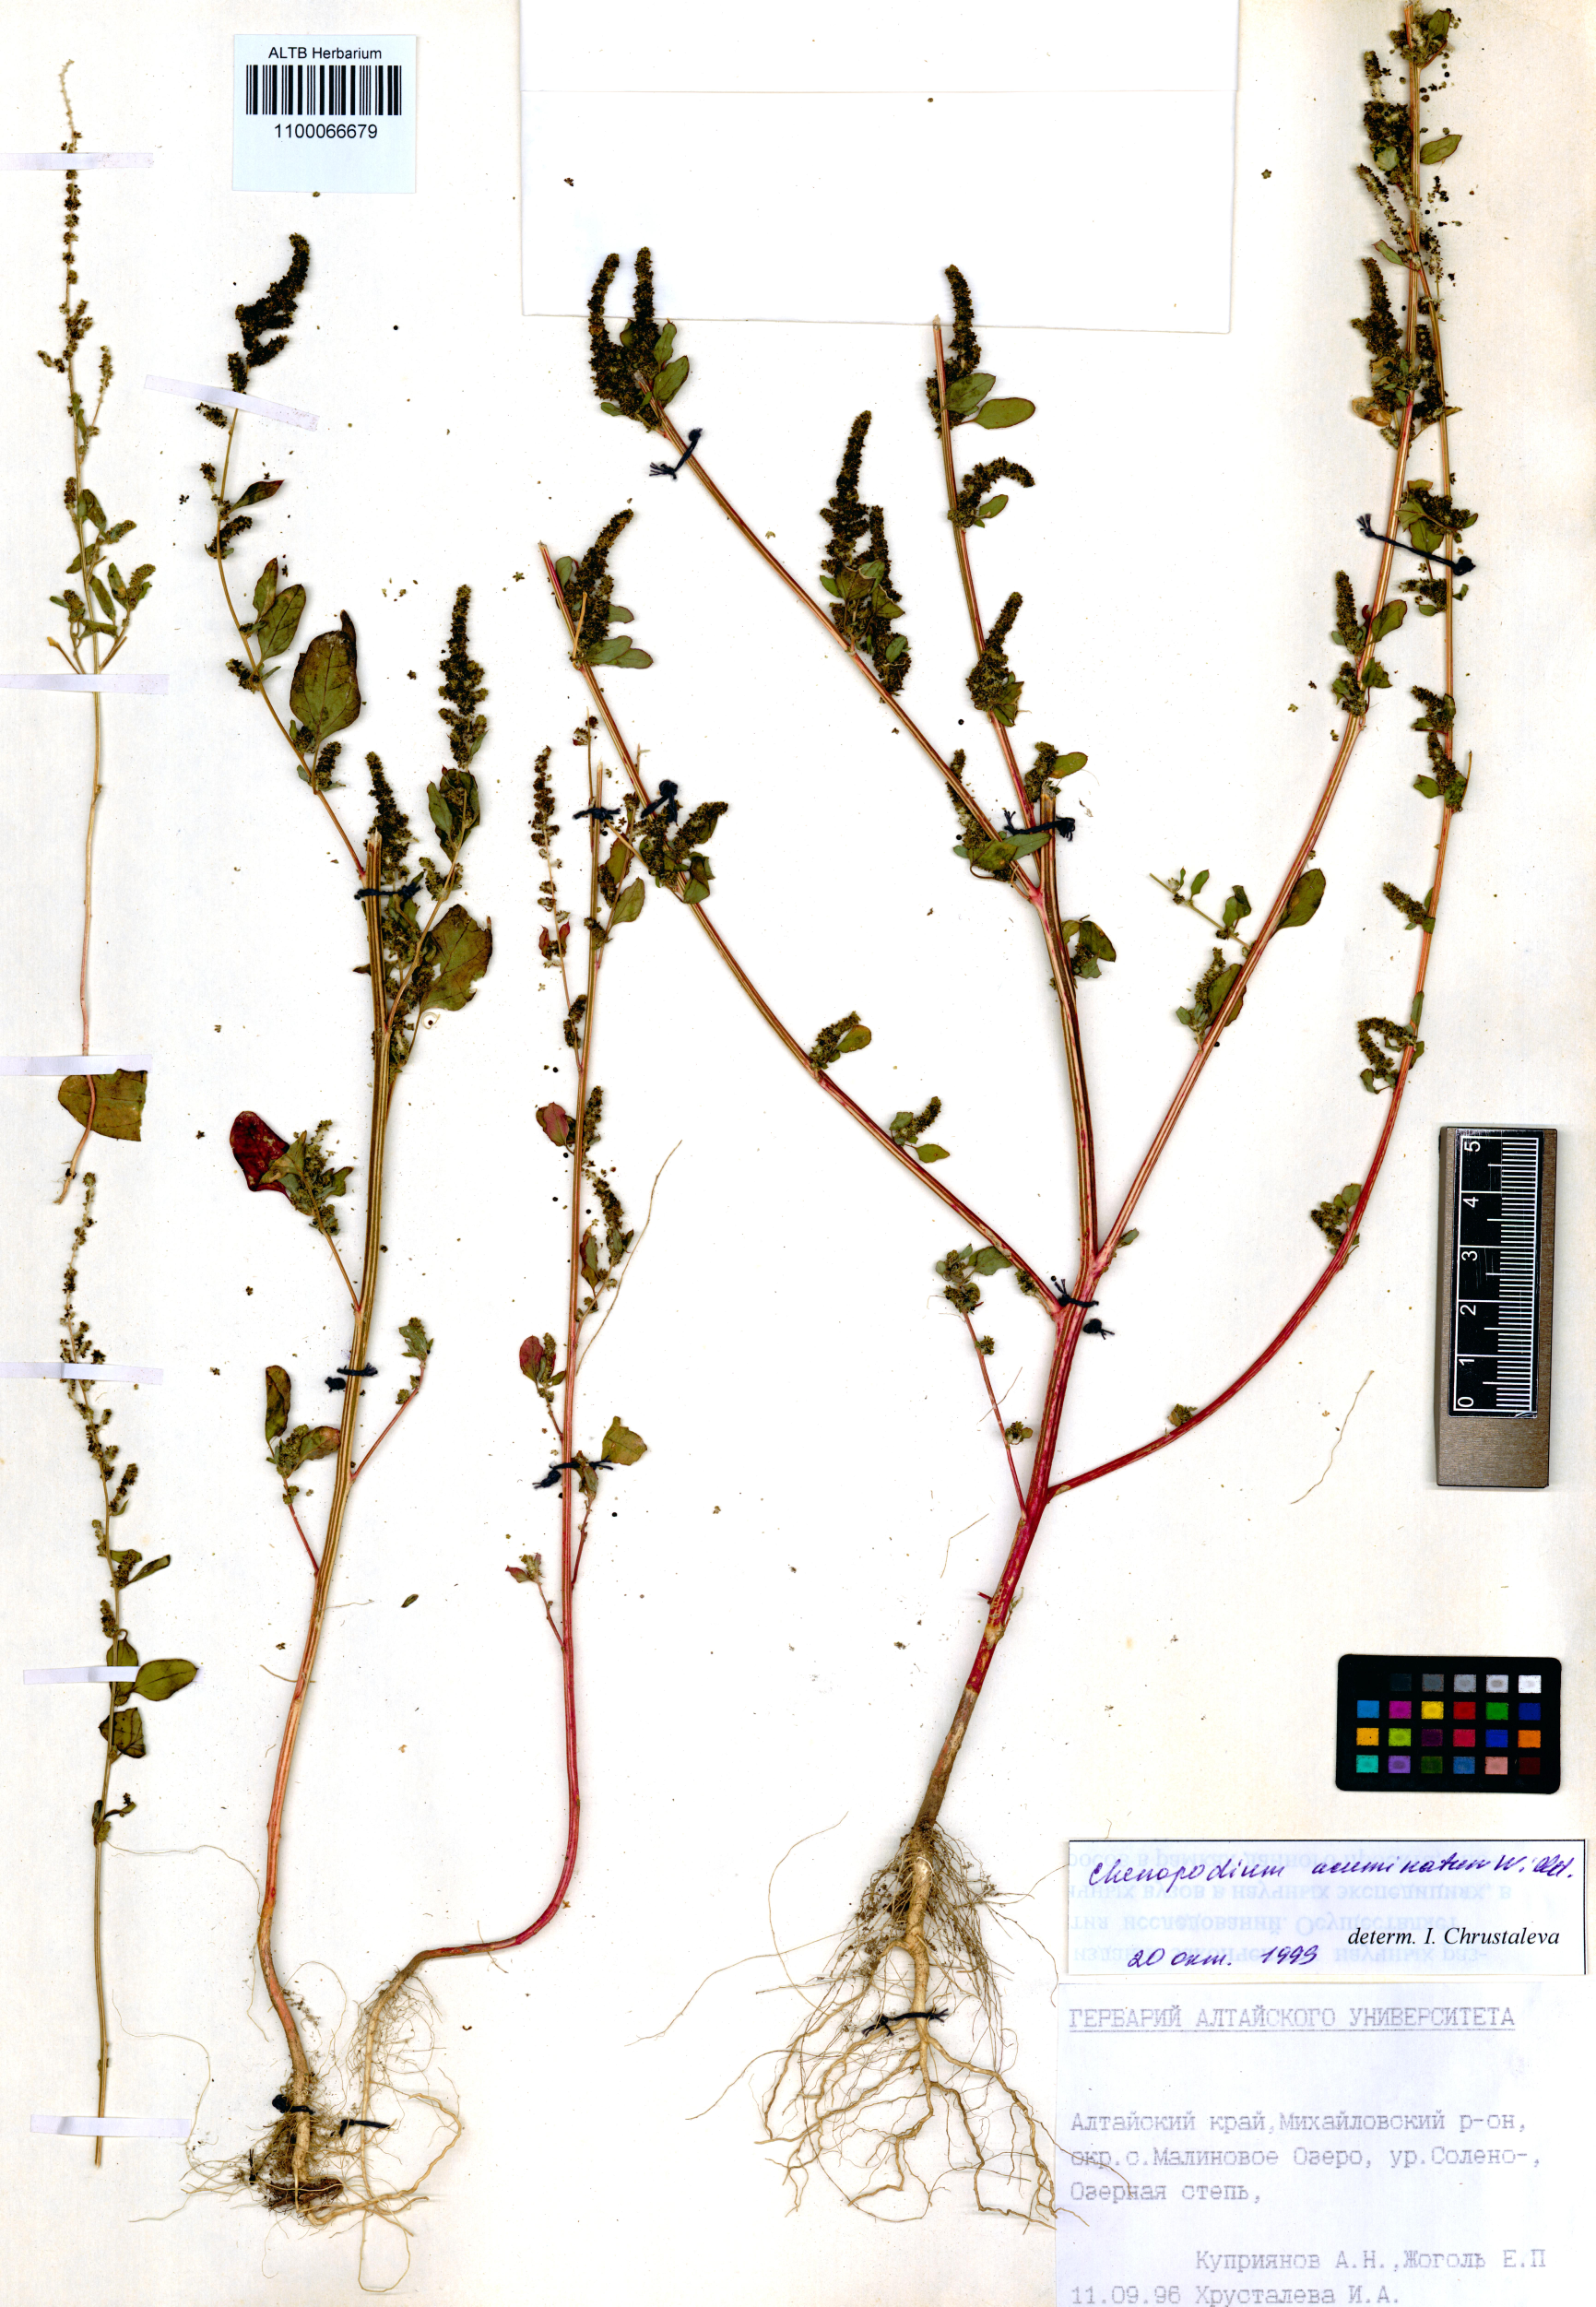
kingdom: Plantae
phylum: Tracheophyta
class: Magnoliopsida
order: Caryophyllales
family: Amaranthaceae
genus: Chenopodium
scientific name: Chenopodium acuminatum
